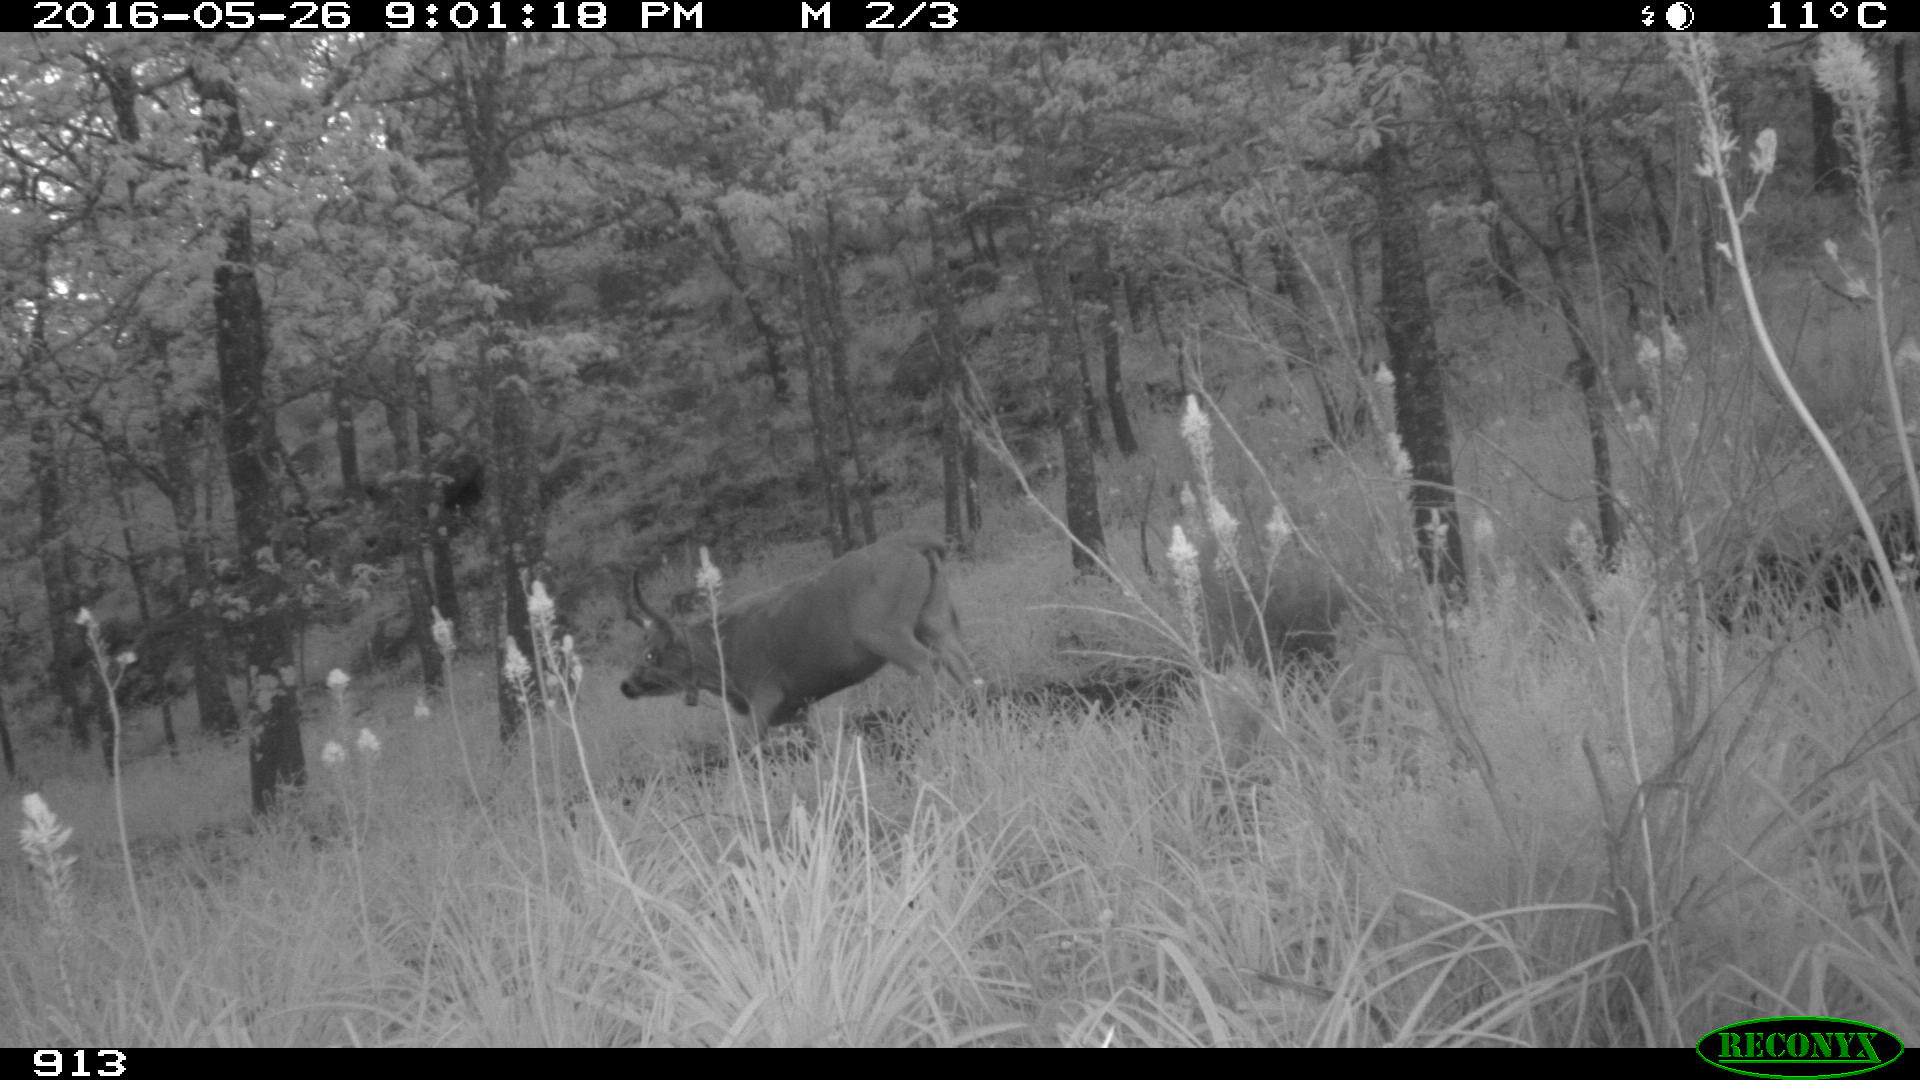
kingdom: Animalia
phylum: Chordata
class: Mammalia
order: Artiodactyla
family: Bovidae
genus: Bos
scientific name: Bos taurus
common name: Domesticated cattle
